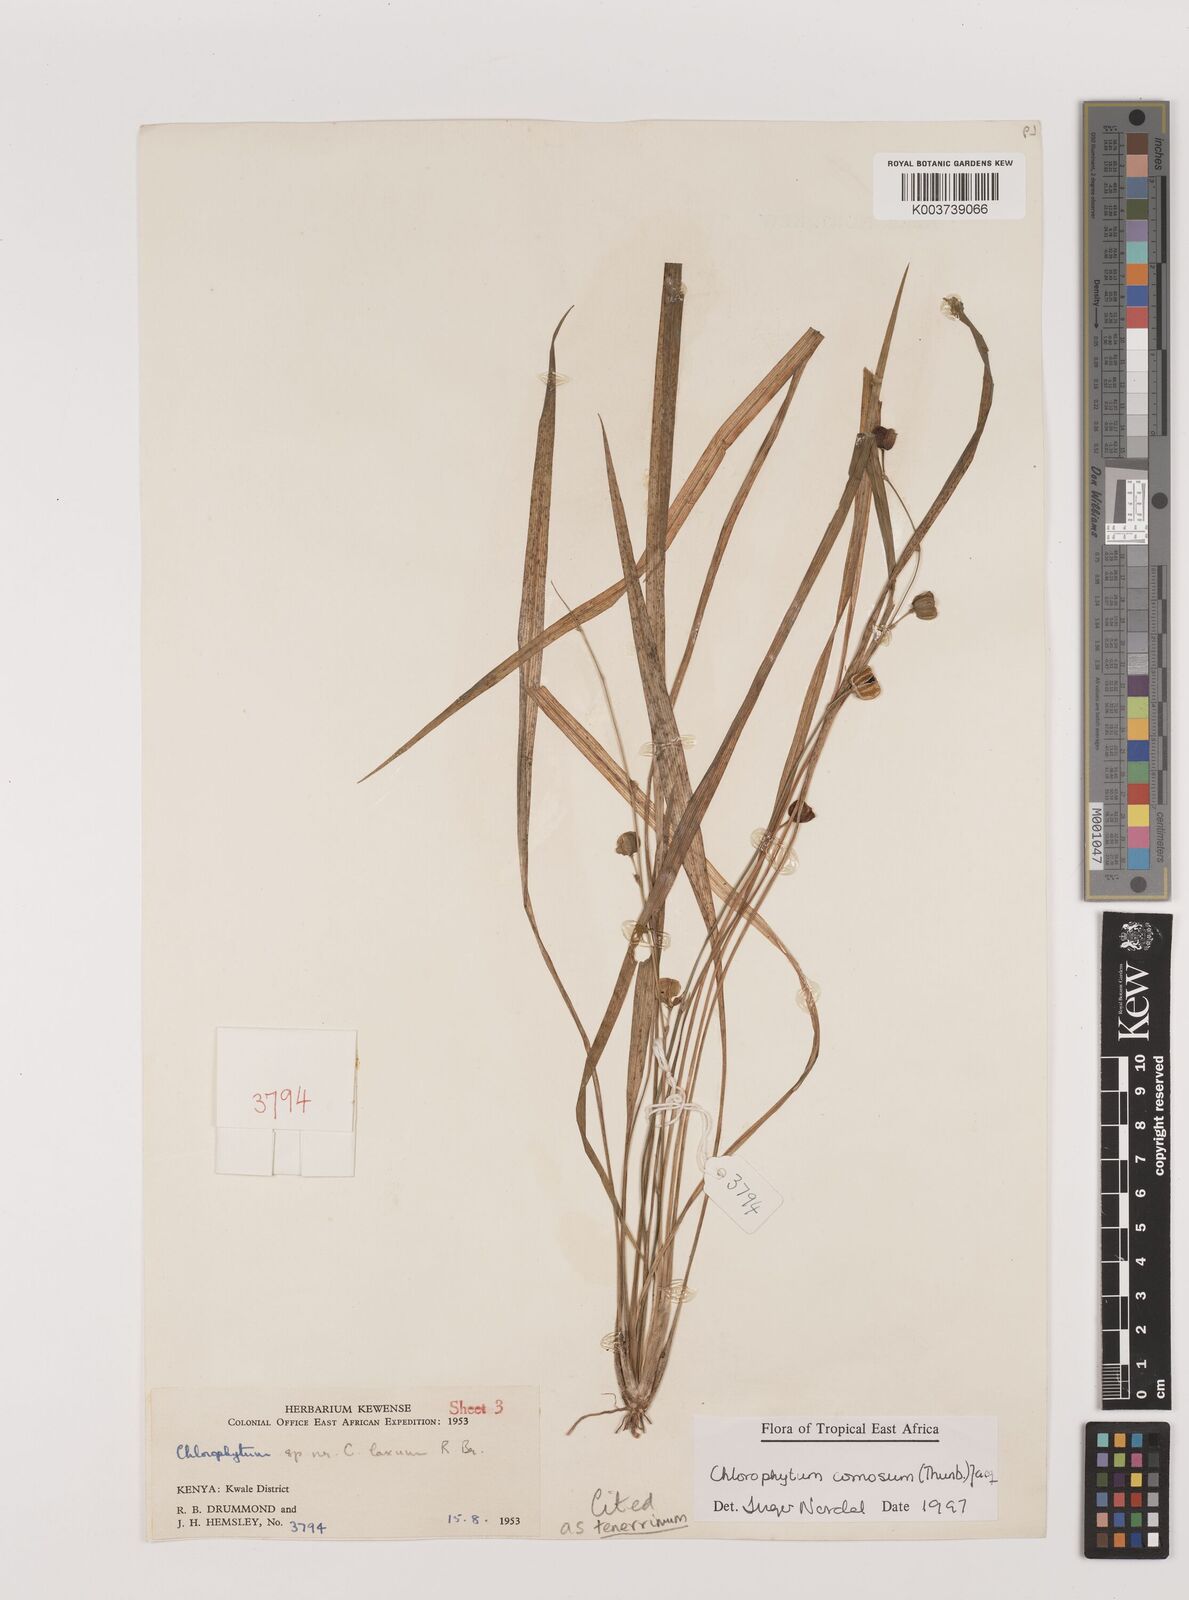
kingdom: Plantae
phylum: Tracheophyta
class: Liliopsida
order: Asparagales
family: Asparagaceae
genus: Chlorophytum
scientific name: Chlorophytum tenerrimum
